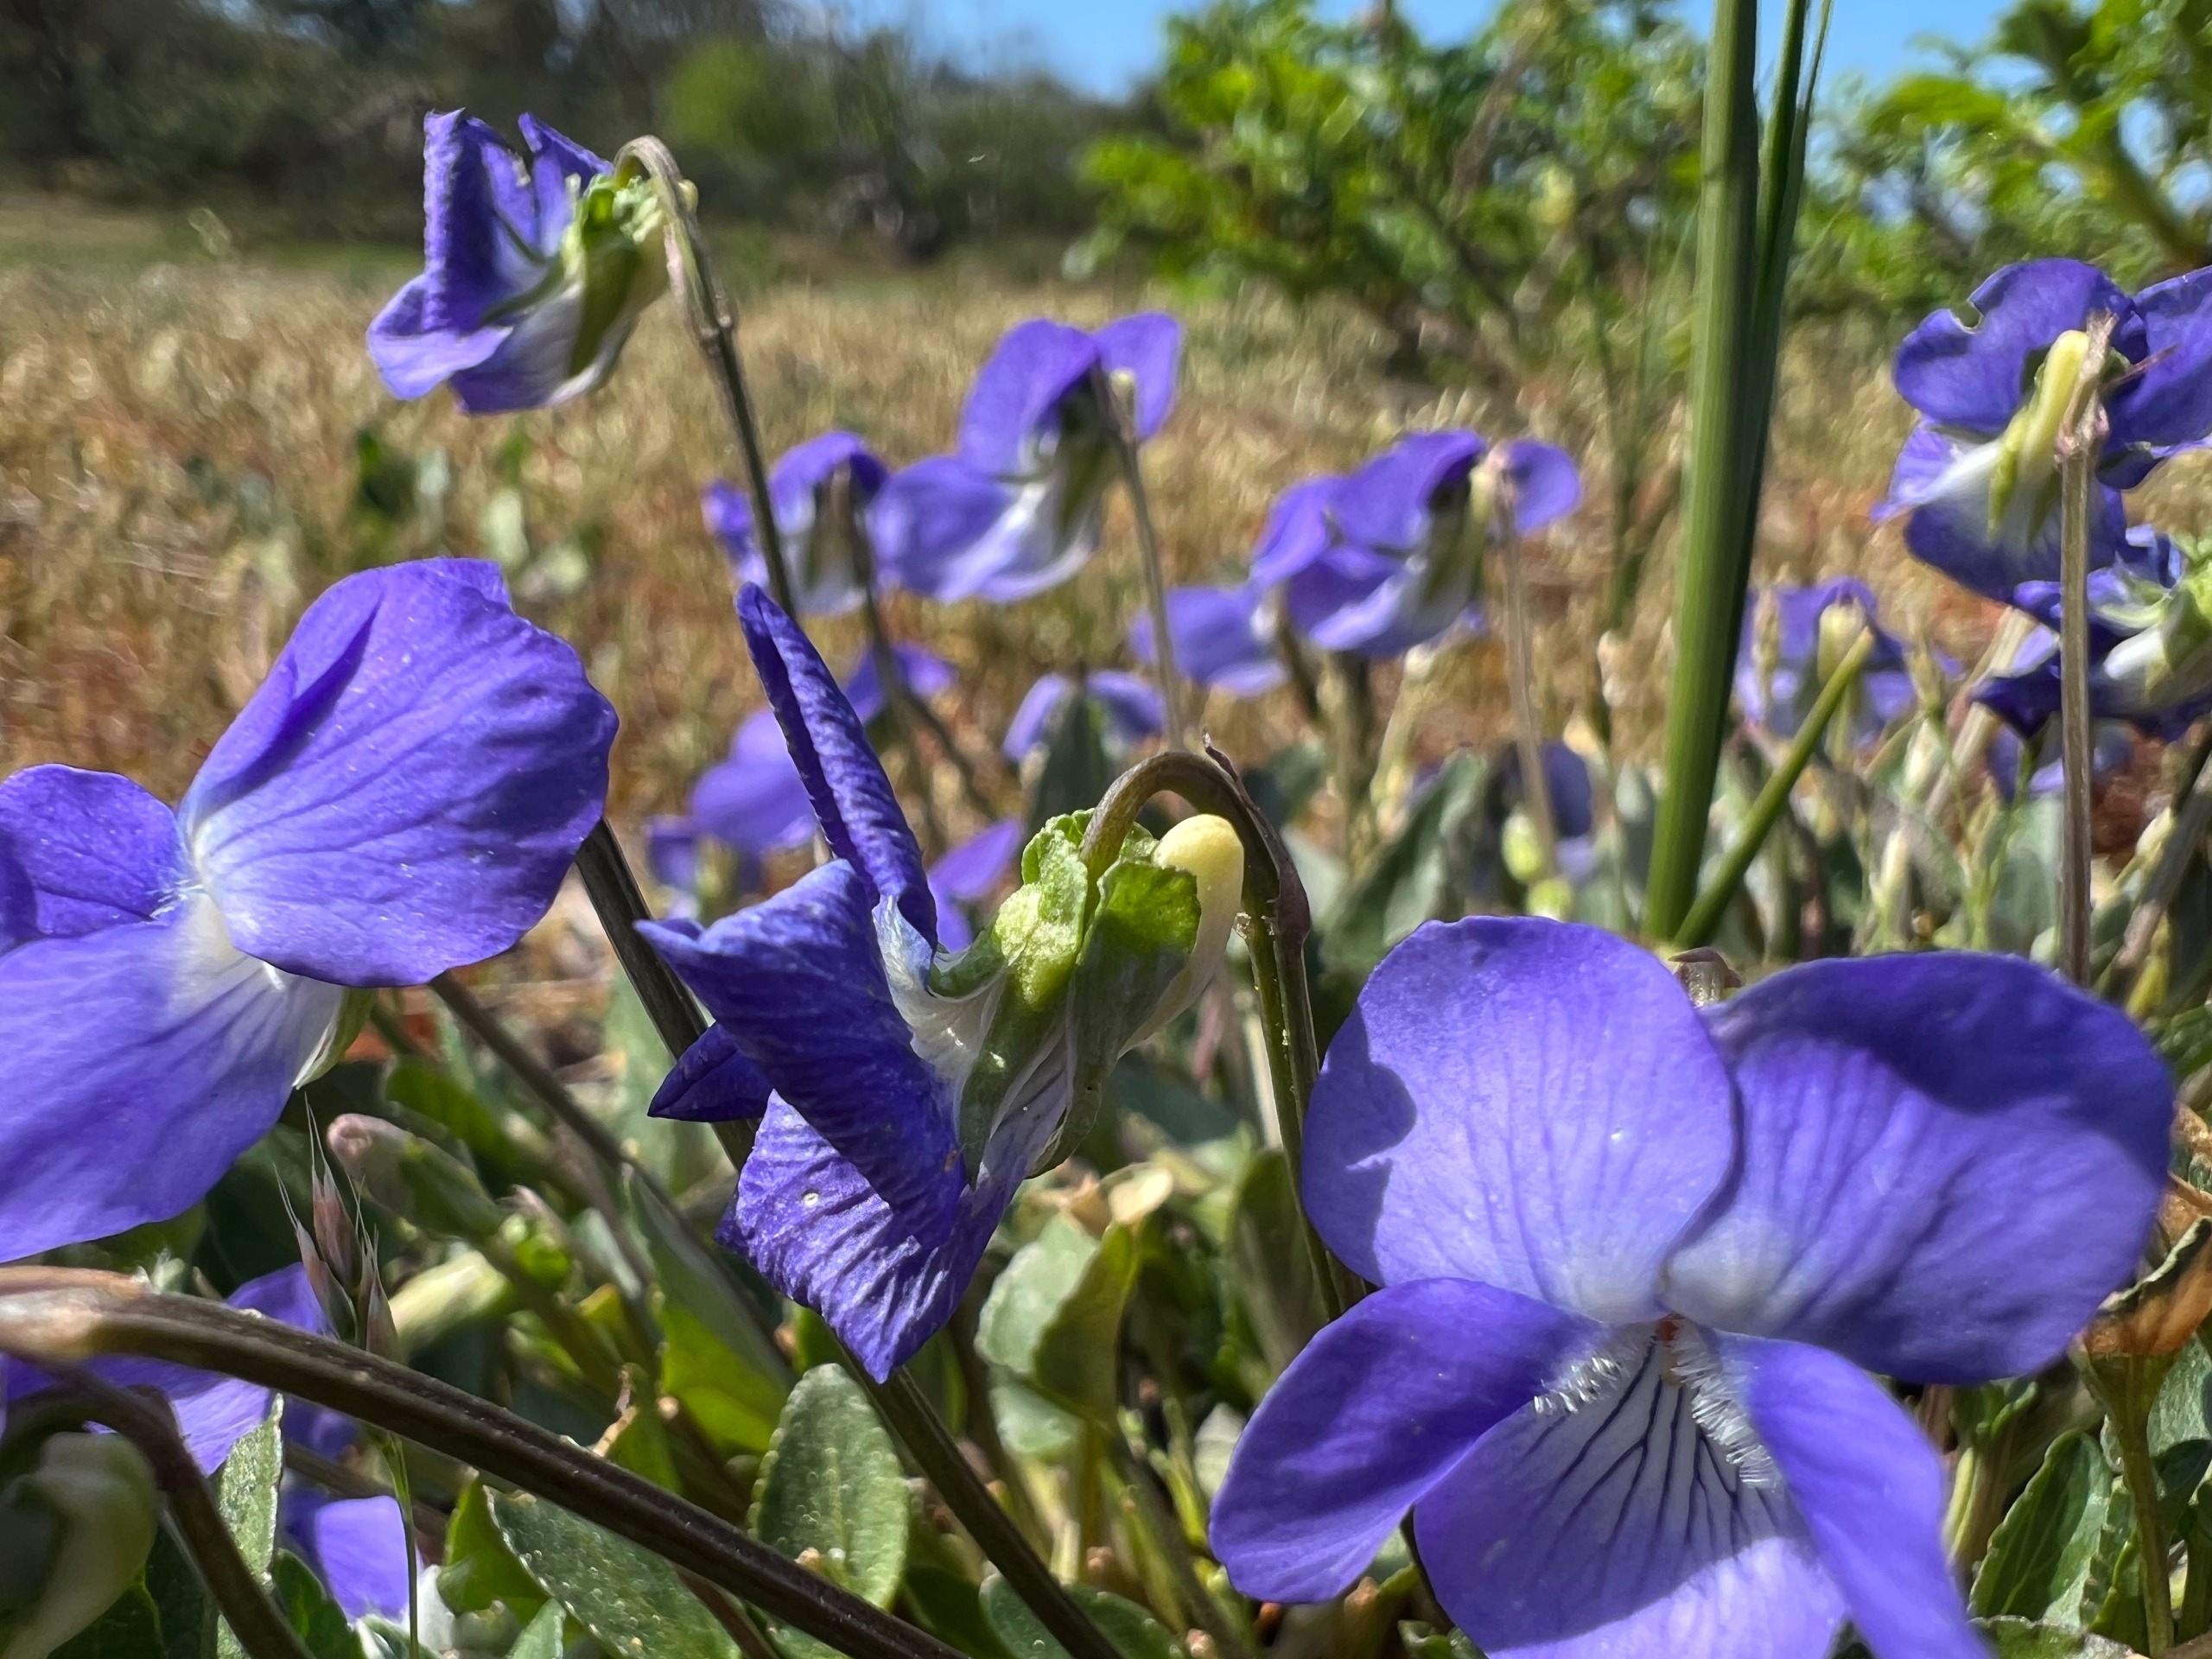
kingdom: Plantae
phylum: Tracheophyta
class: Magnoliopsida
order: Malpighiales
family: Violaceae
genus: Viola
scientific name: Viola canina
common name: Hunde-viol
